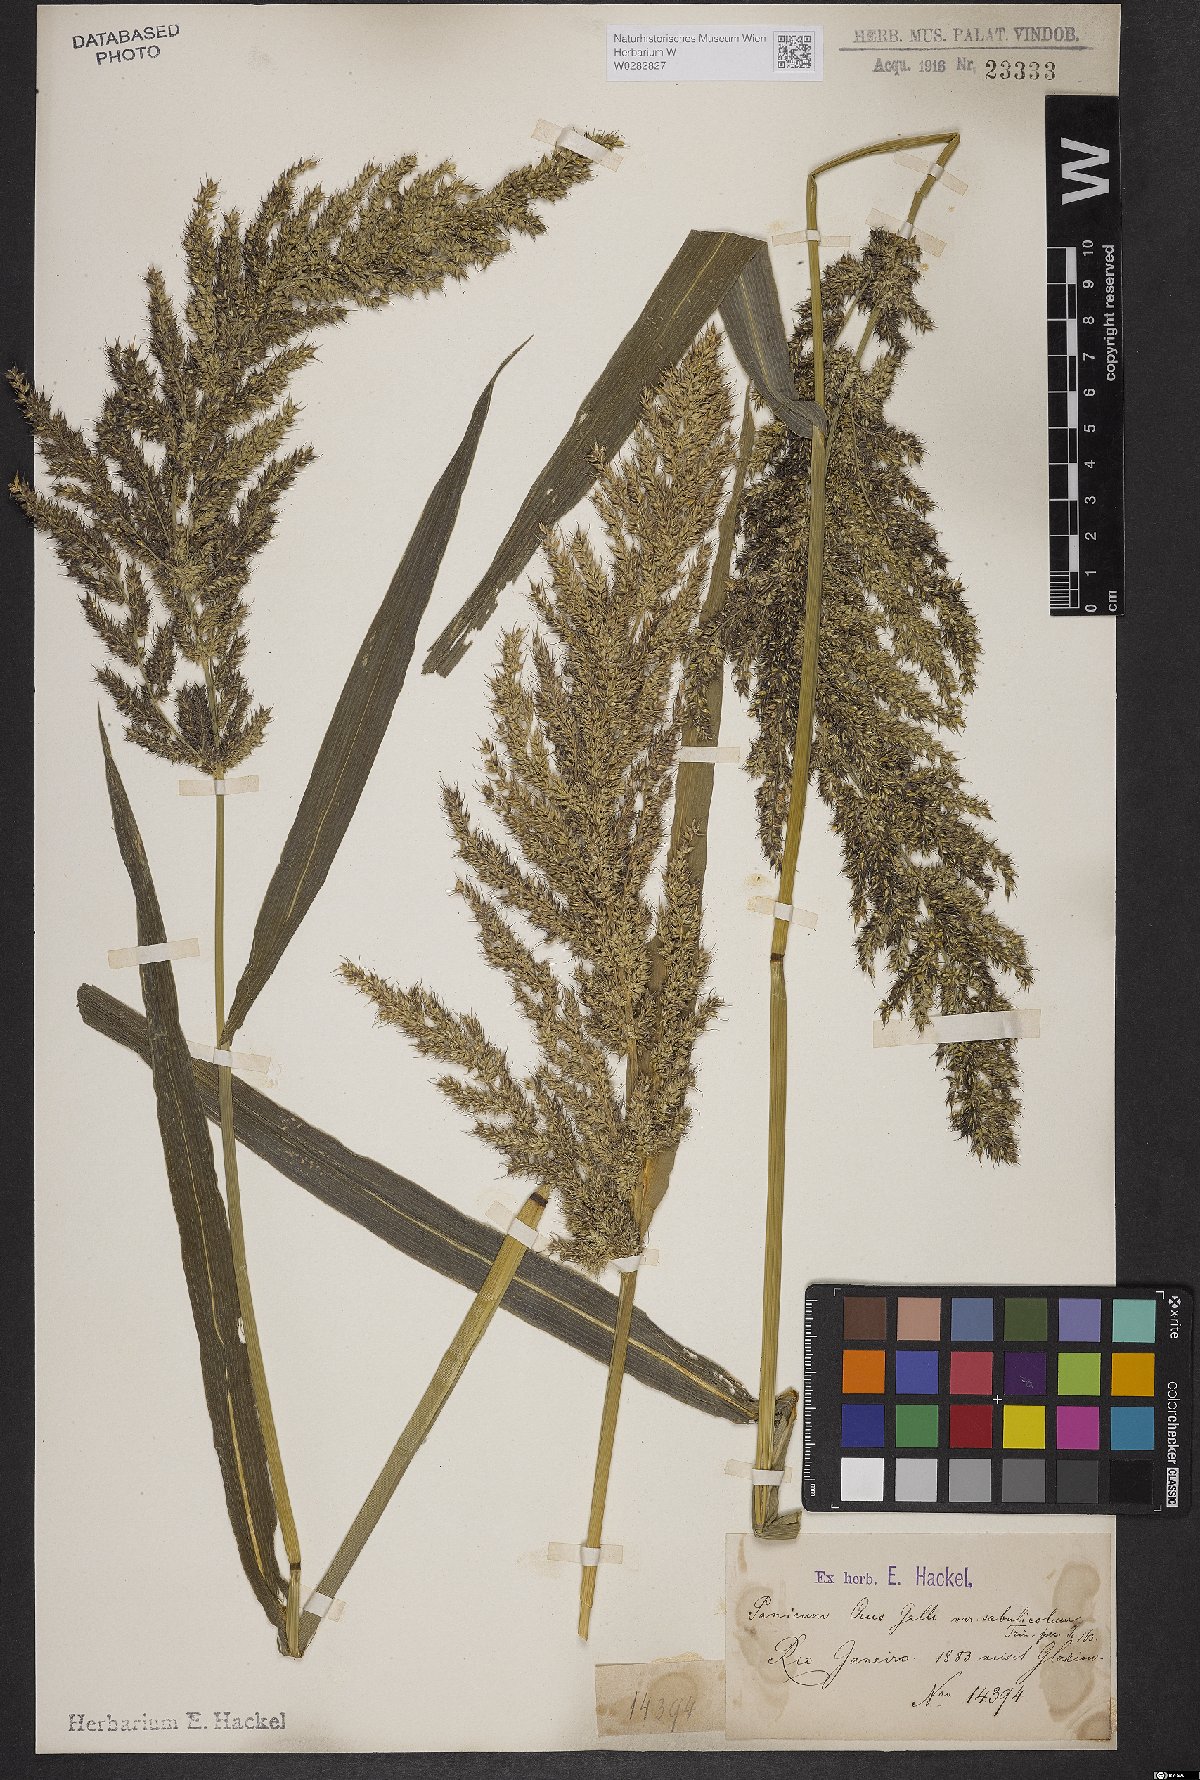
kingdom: Plantae
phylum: Tracheophyta
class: Liliopsida
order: Poales
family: Poaceae
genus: Echinochloa
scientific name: Echinochloa crus-pavonis
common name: Gulf cockspur grass
